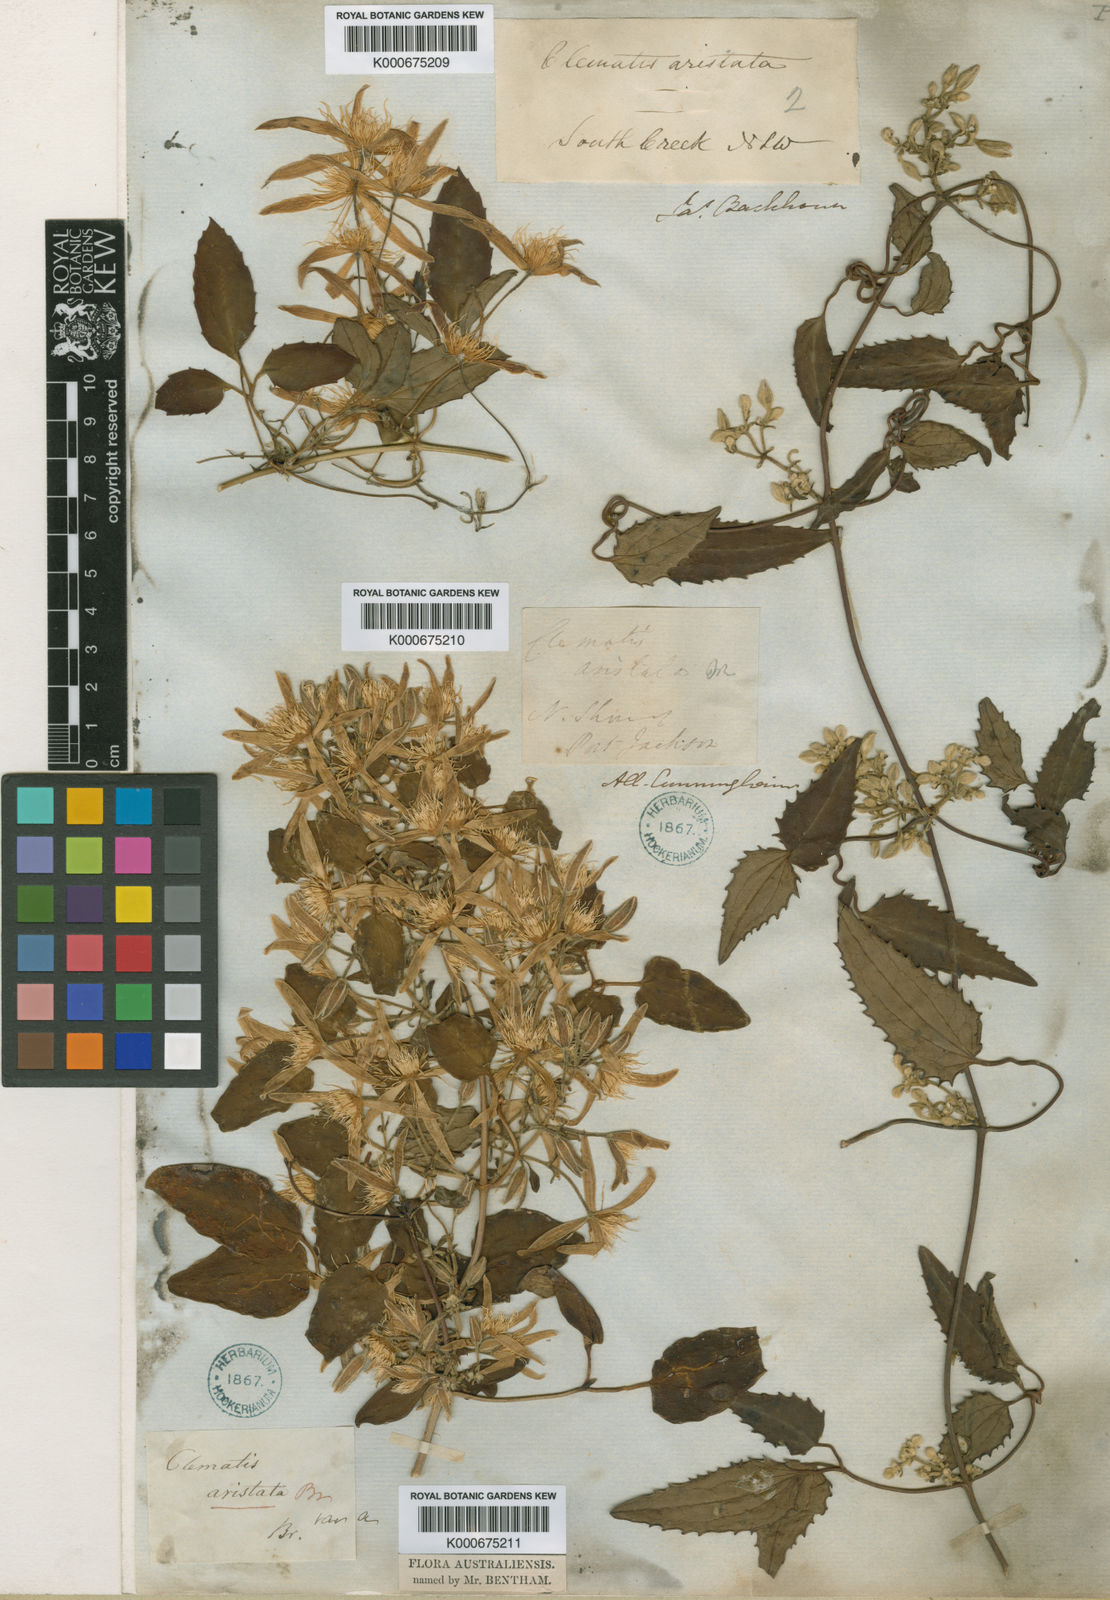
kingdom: Plantae
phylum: Tracheophyta
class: Magnoliopsida
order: Ranunculales
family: Ranunculaceae
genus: Clematis
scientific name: Clematis aristata
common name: Mountain clematis
